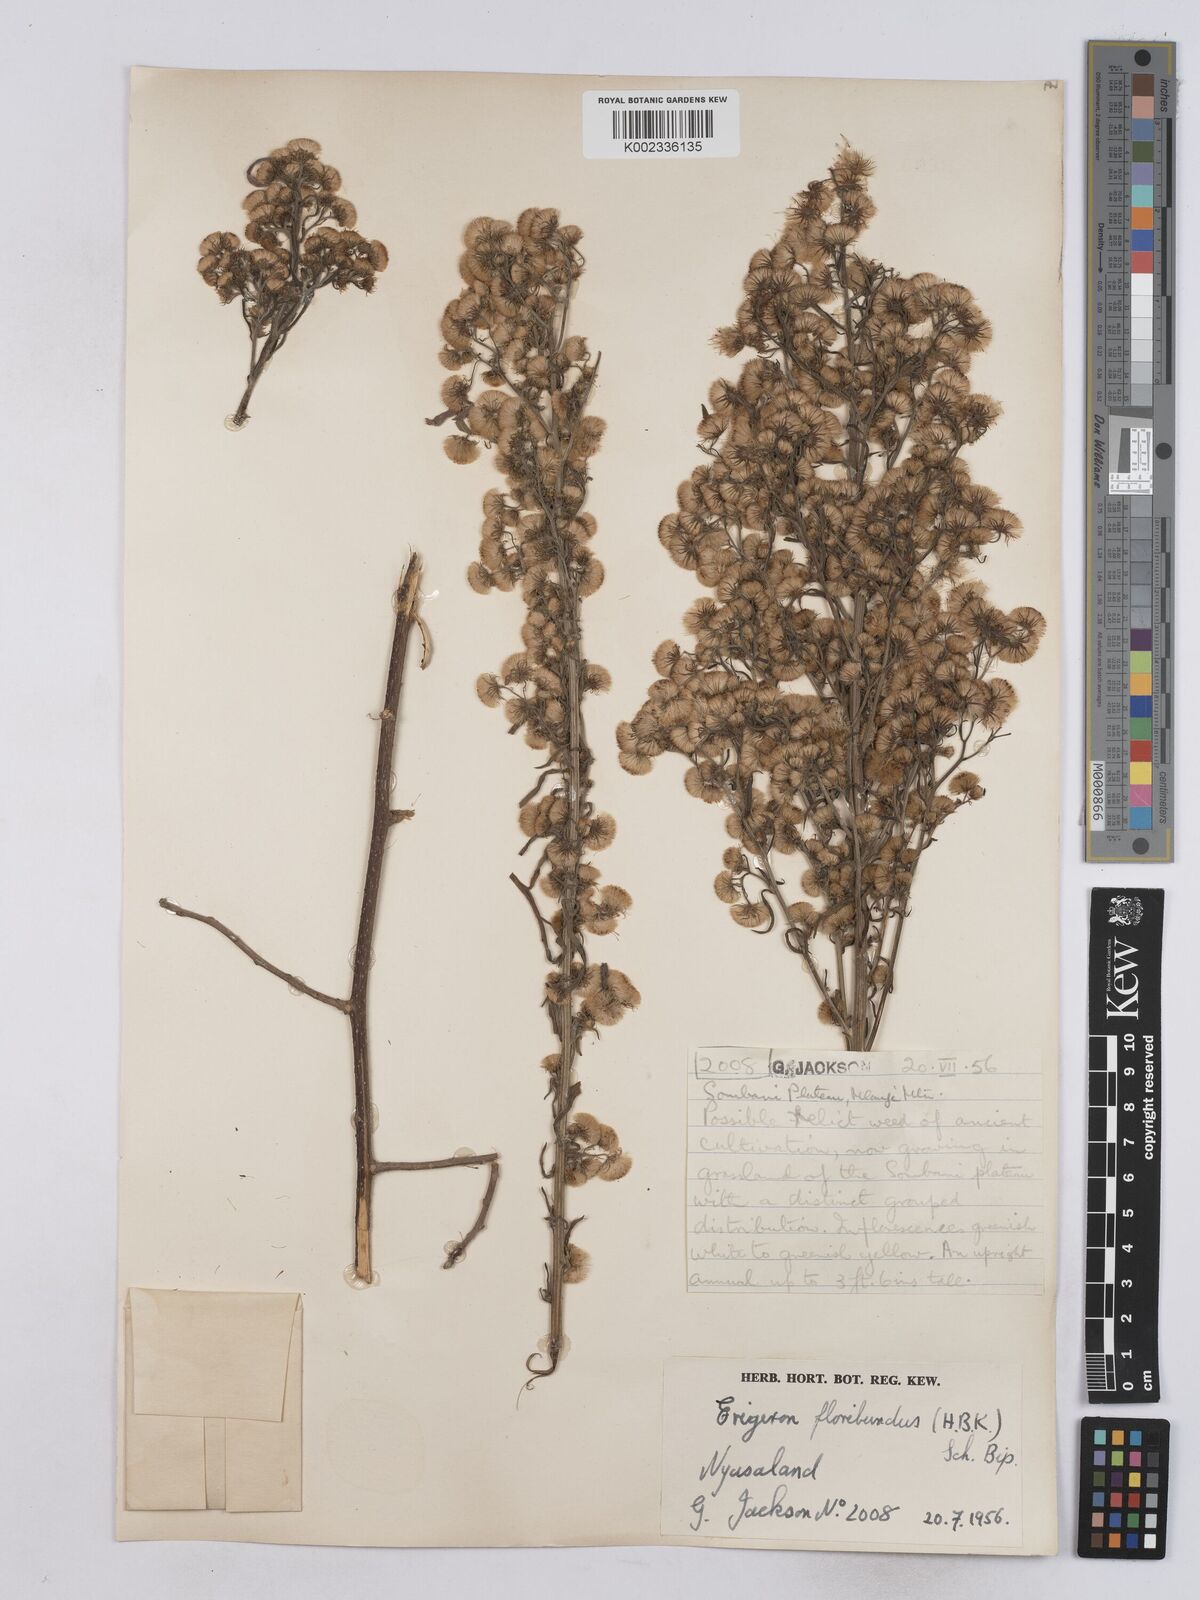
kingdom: Plantae
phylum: Tracheophyta
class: Magnoliopsida
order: Asterales
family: Asteraceae
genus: Erigeron
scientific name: Erigeron floribundus
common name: Bilbao fleabane
